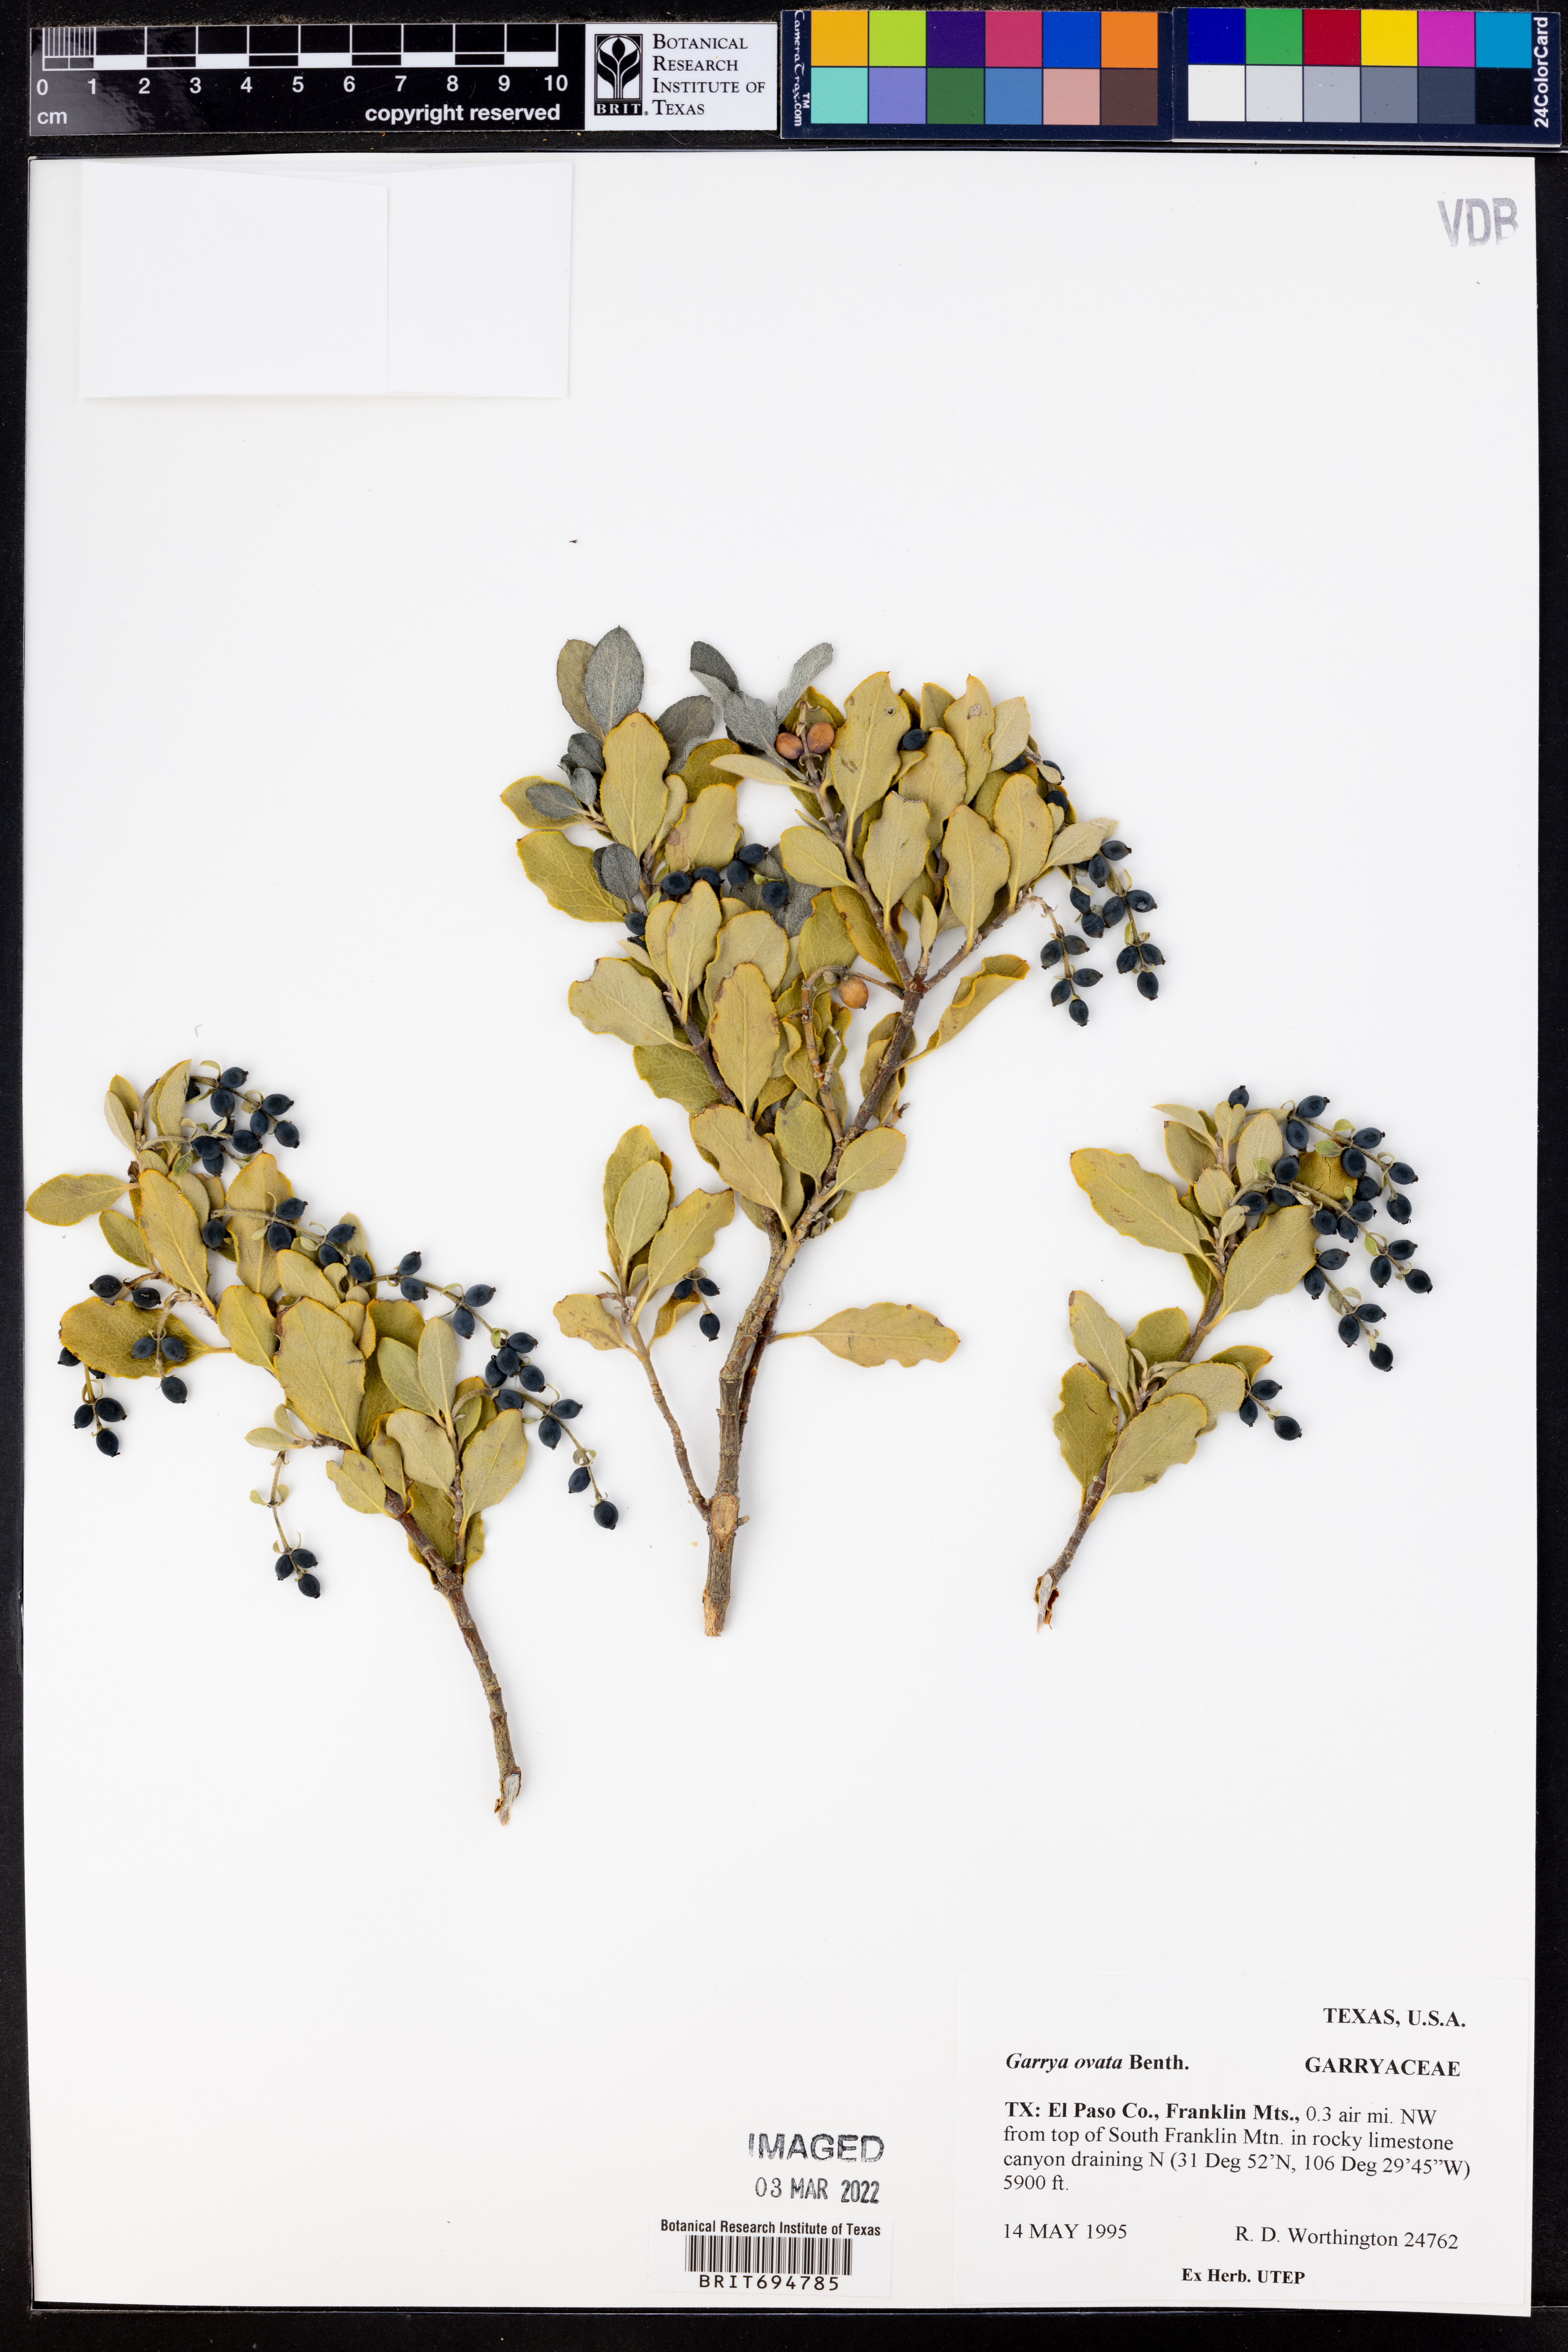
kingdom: Plantae
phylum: Tracheophyta
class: Magnoliopsida
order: Garryales
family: Garryaceae
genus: Garrya
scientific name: Garrya ovata
